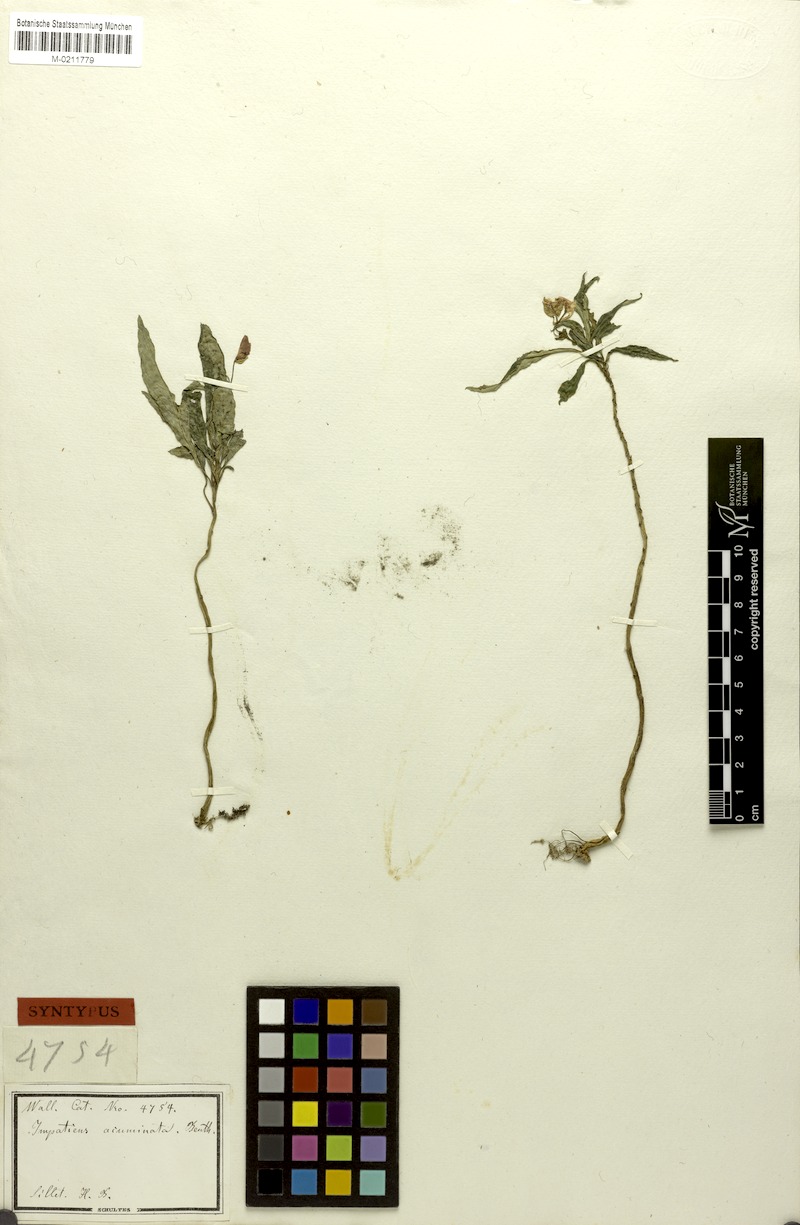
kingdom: Plantae
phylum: Tracheophyta
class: Magnoliopsida
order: Ericales
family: Balsaminaceae
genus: Impatiens
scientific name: Impatiens acuminata
